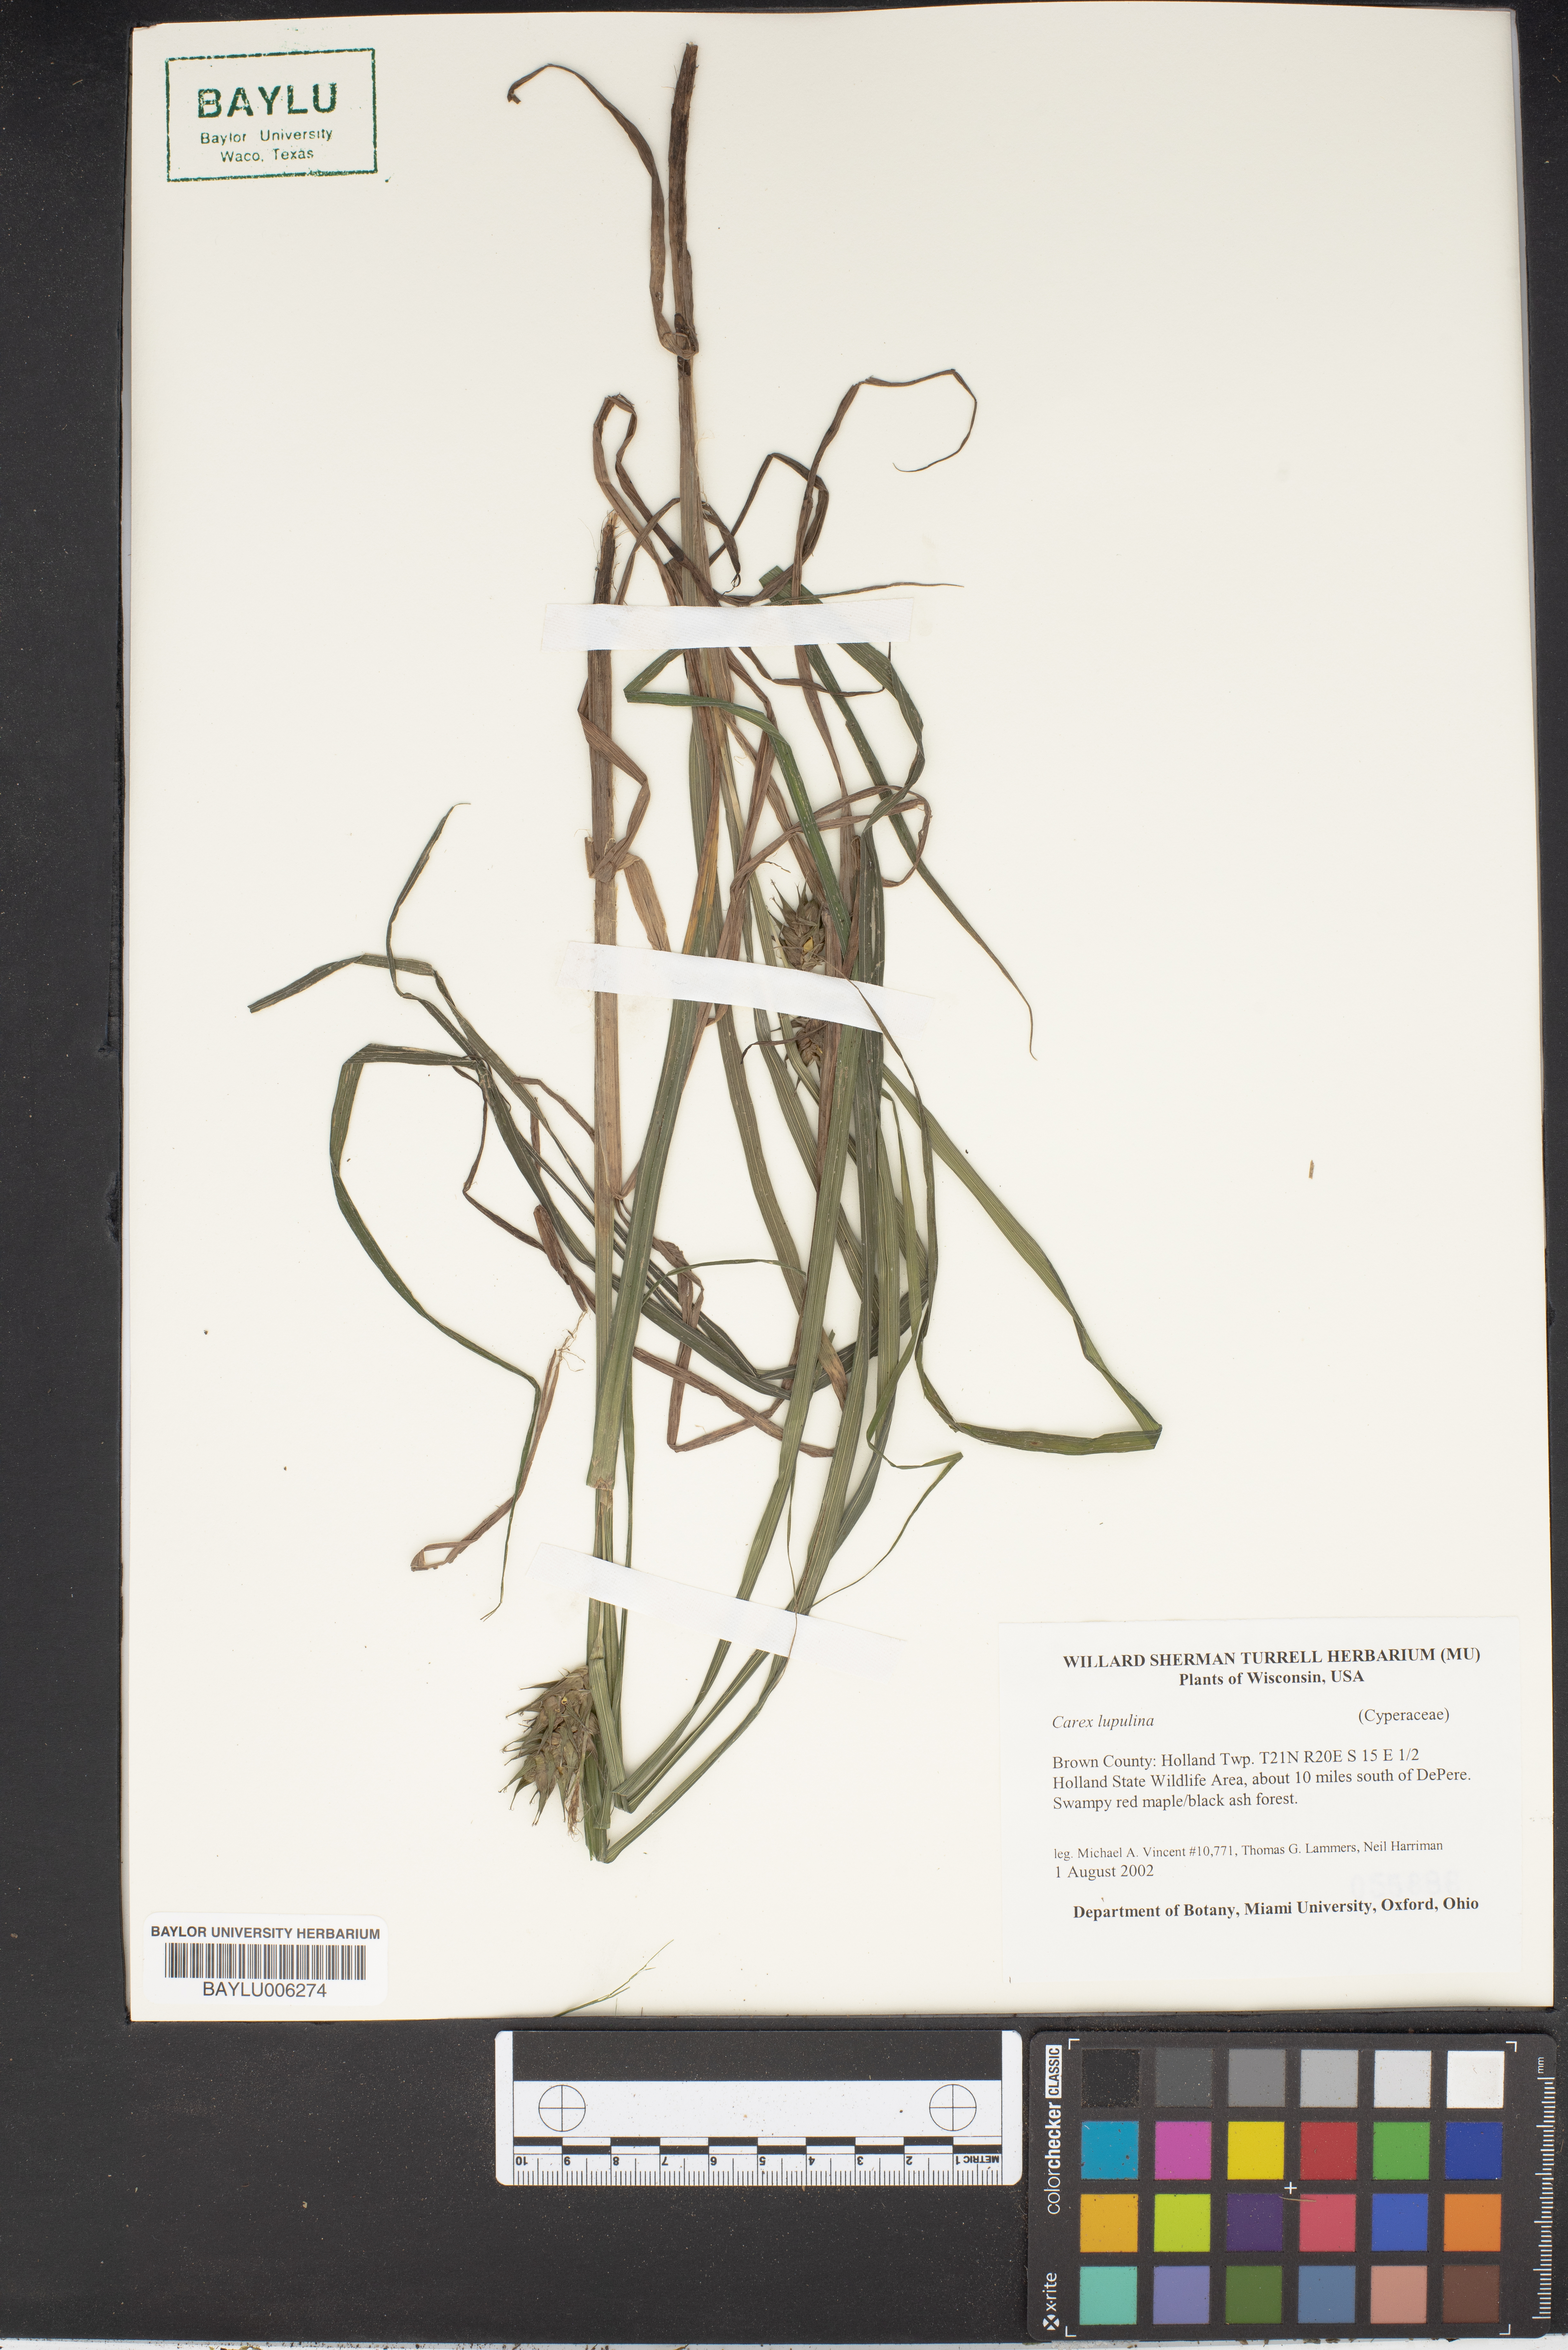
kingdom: Plantae
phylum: Tracheophyta
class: Liliopsida
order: Poales
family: Cyperaceae
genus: Carex
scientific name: Carex lupulina
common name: Hop sedge
